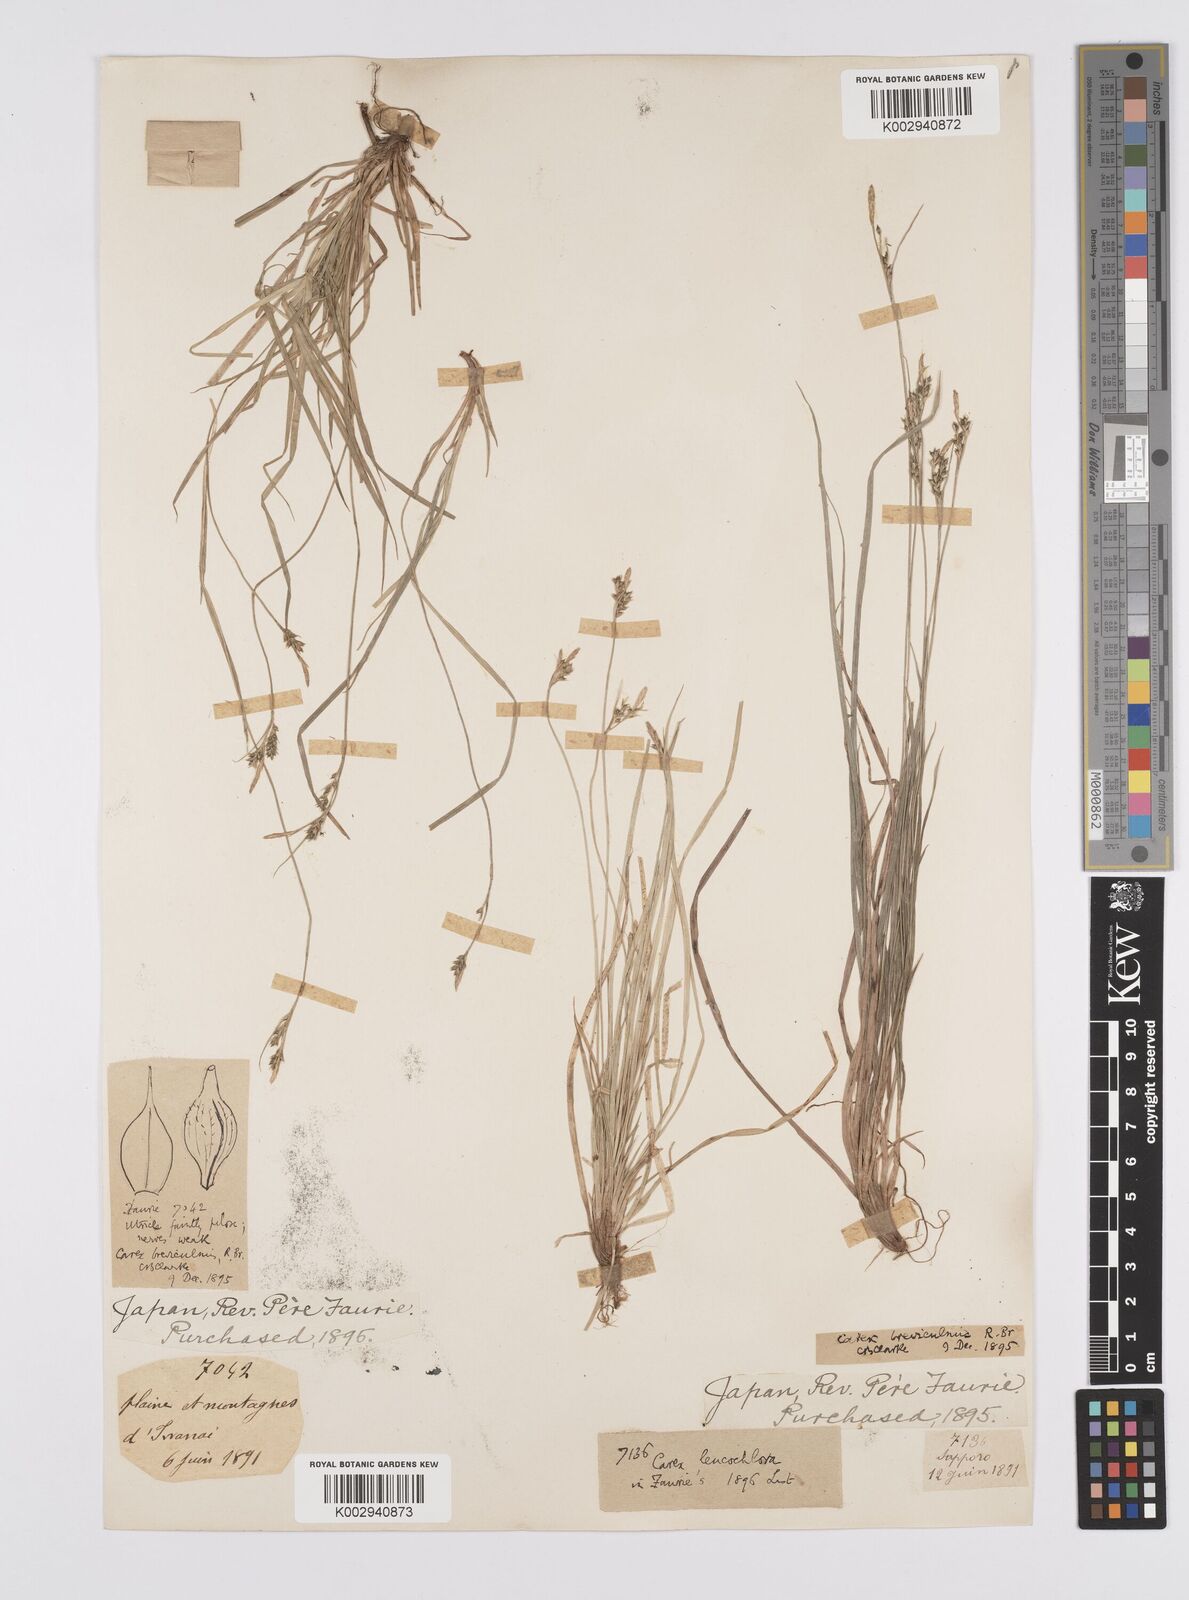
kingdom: Plantae
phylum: Tracheophyta
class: Liliopsida
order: Poales
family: Cyperaceae
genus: Carex
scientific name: Carex breviculmis
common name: Asian shortstem sedge
